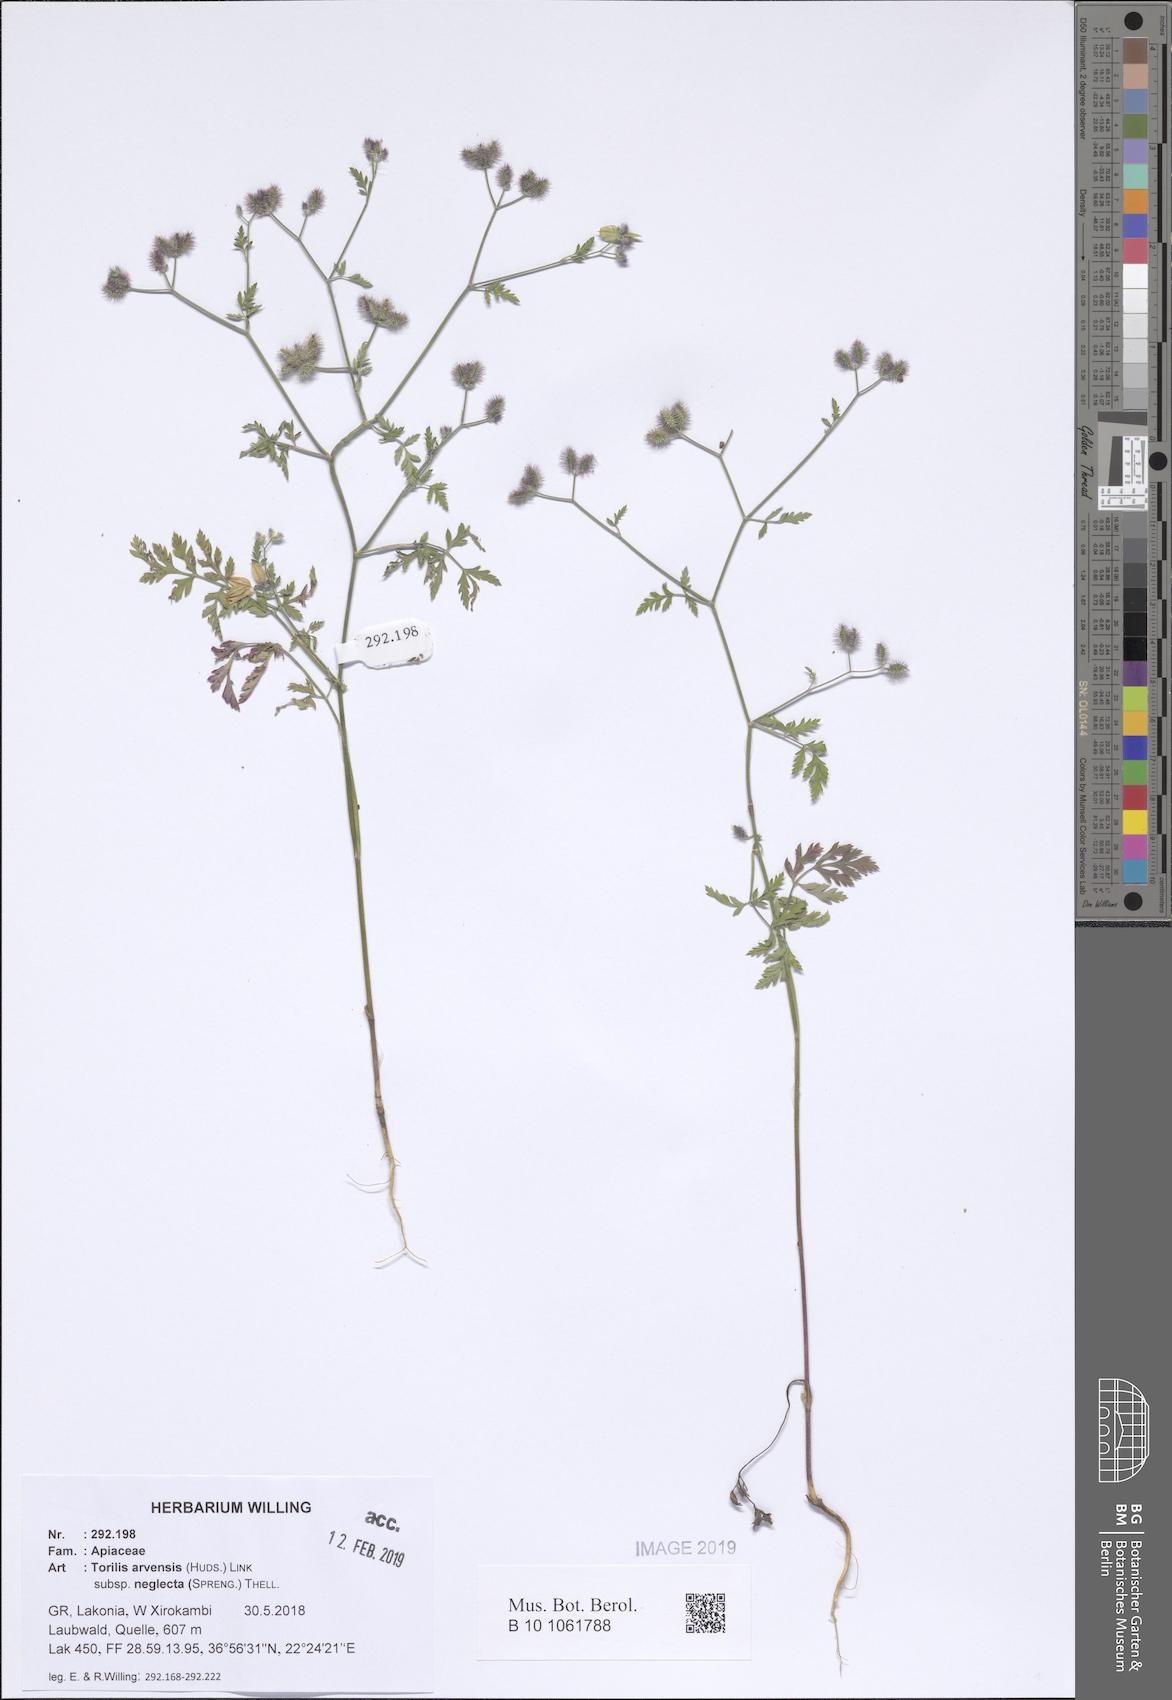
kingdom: Plantae
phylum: Tracheophyta
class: Magnoliopsida
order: Apiales
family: Apiaceae
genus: Torilis
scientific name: Torilis arvensis
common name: Spreading hedge-parsley
